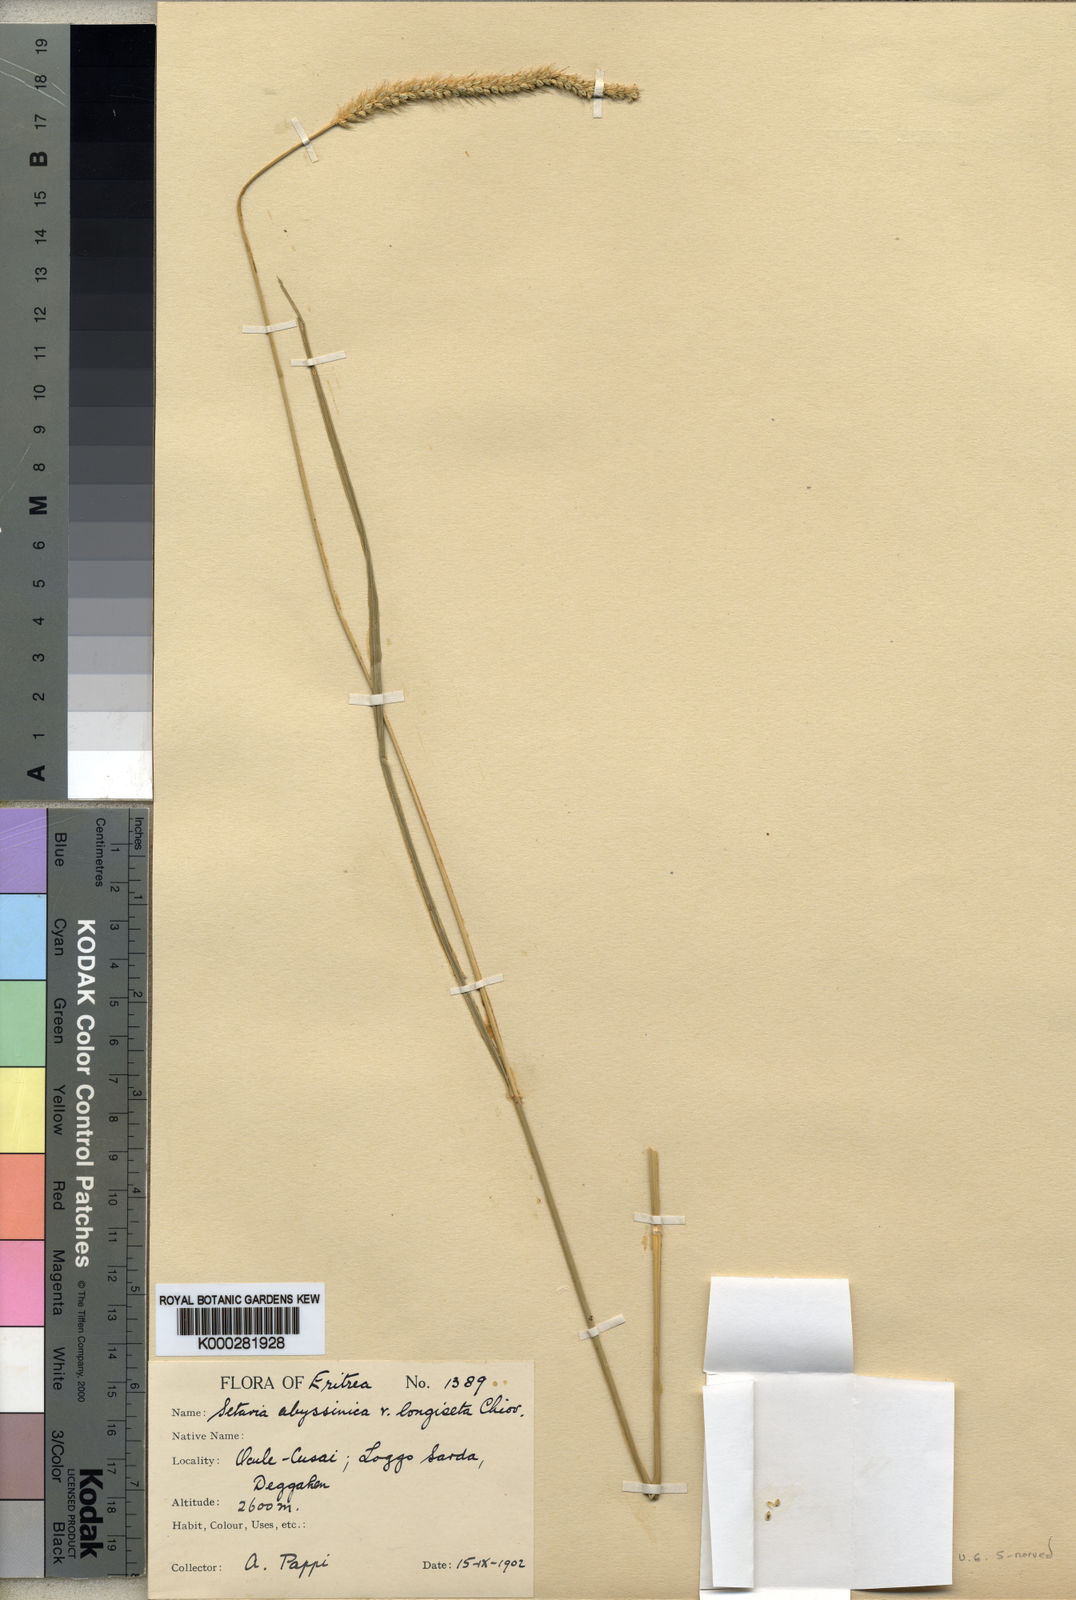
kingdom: Plantae
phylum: Tracheophyta
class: Liliopsida
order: Poales
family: Poaceae
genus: Setaria
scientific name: Setaria incrassata
